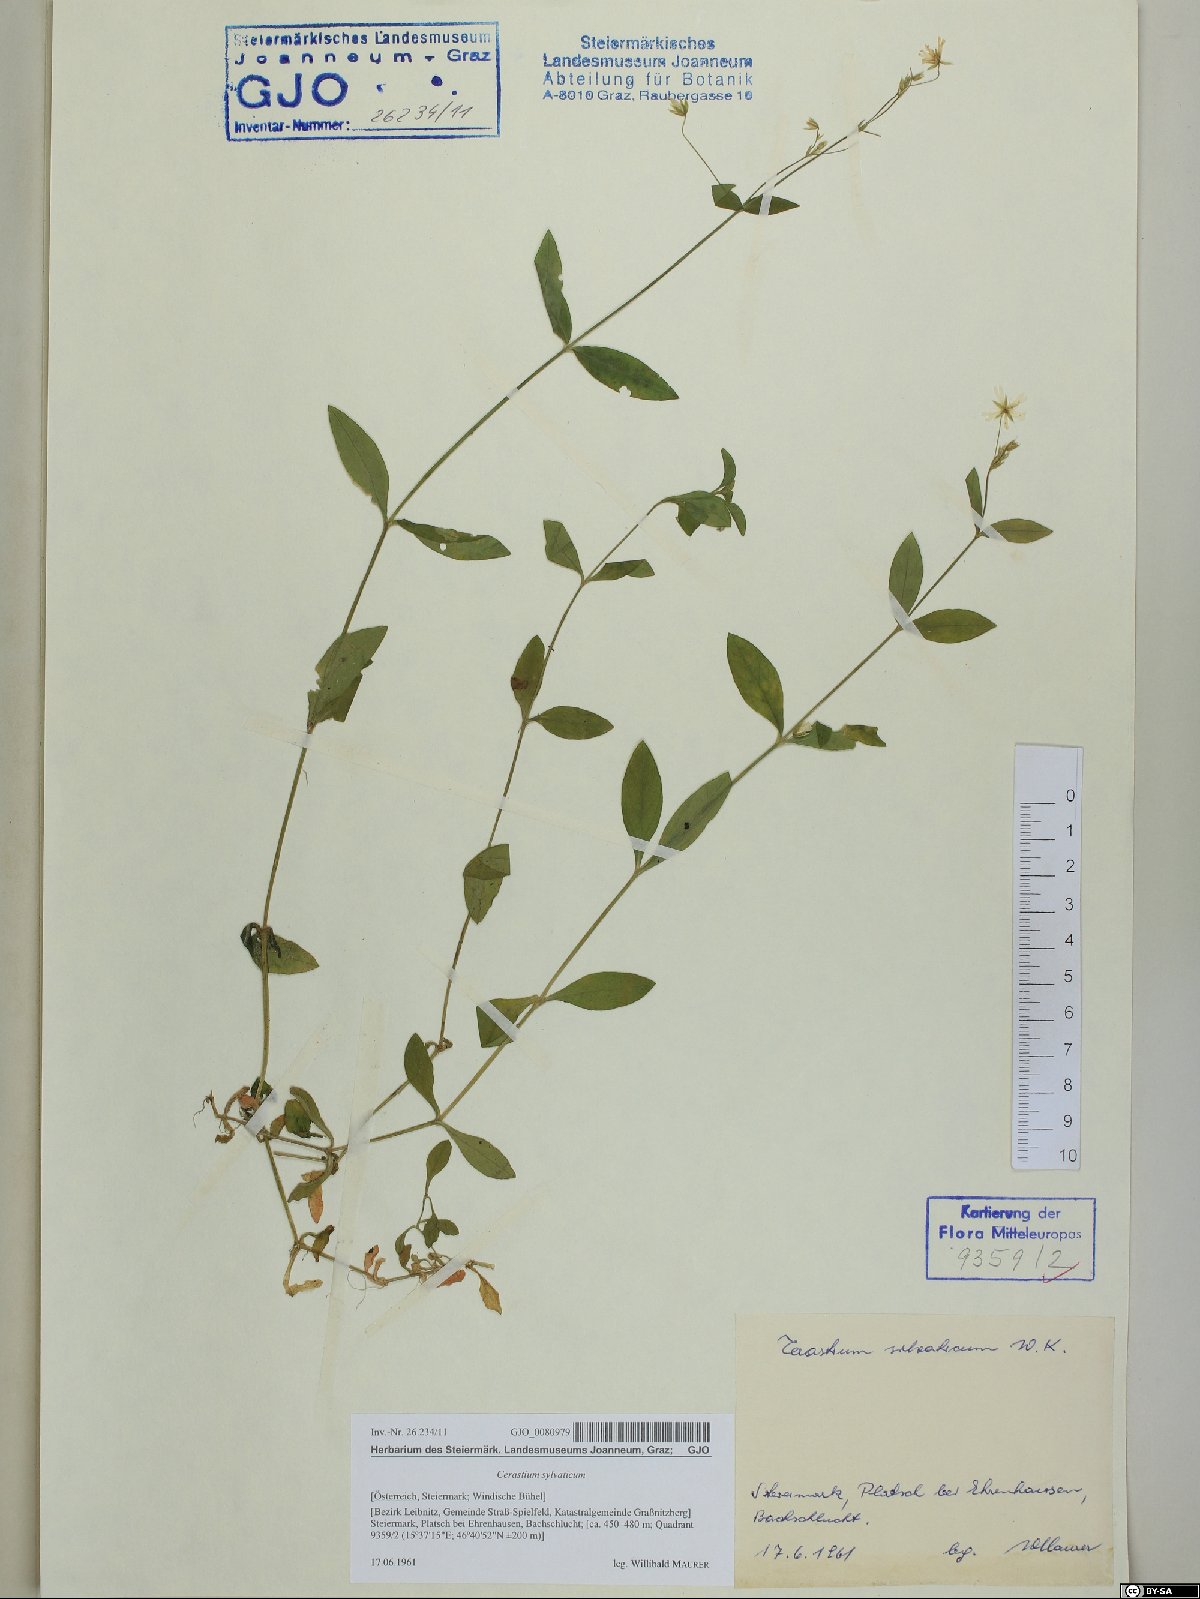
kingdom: Plantae
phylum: Tracheophyta
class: Magnoliopsida
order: Caryophyllales
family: Caryophyllaceae
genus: Cerastium
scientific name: Cerastium sylvaticum
